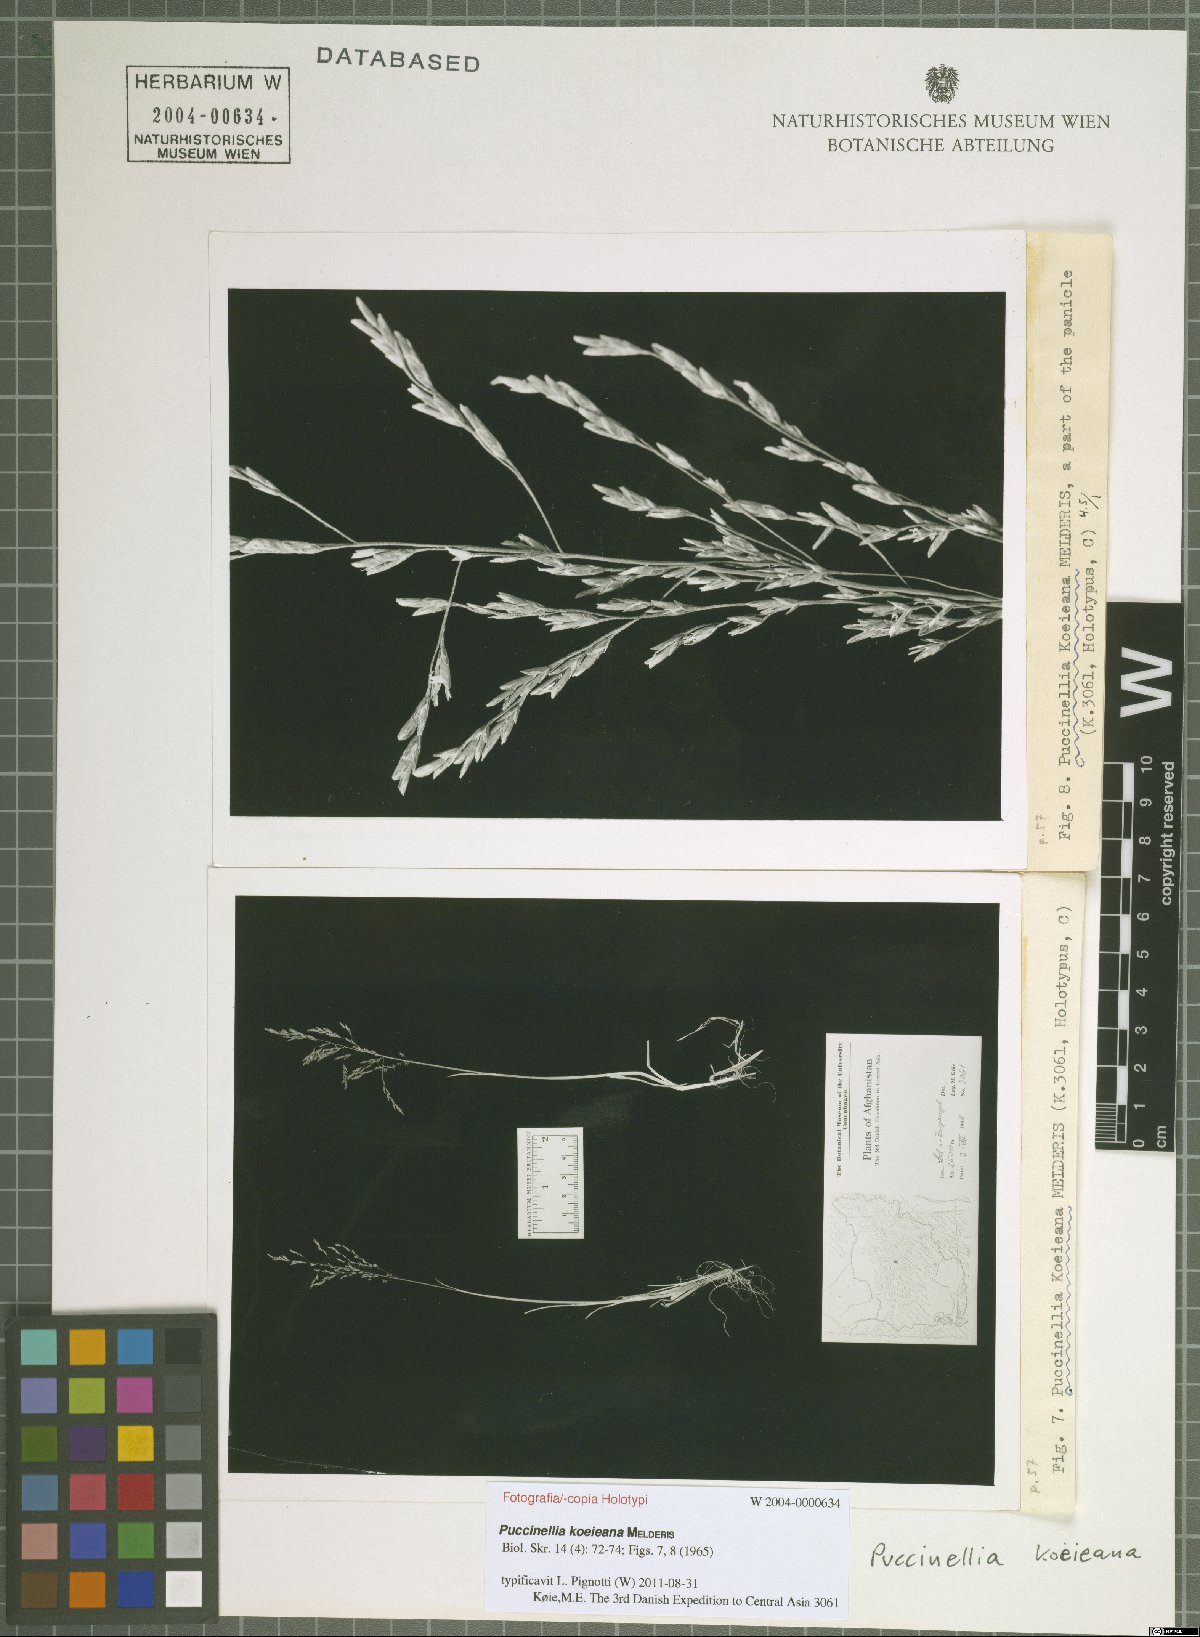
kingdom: Plantae
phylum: Tracheophyta
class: Liliopsida
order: Poales
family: Poaceae
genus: Puccinellia
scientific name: Puccinellia koeieana
